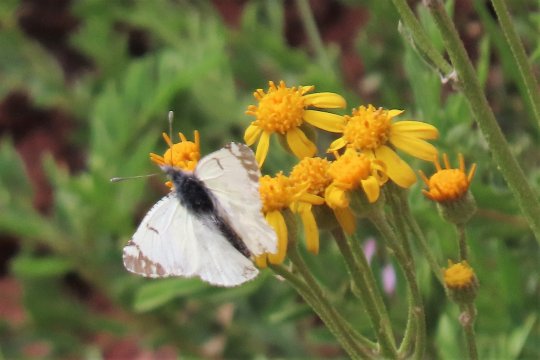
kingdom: Animalia
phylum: Arthropoda
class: Insecta
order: Lepidoptera
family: Pieridae
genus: Euchloe
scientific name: Euchloe ausonides
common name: Large Marble
